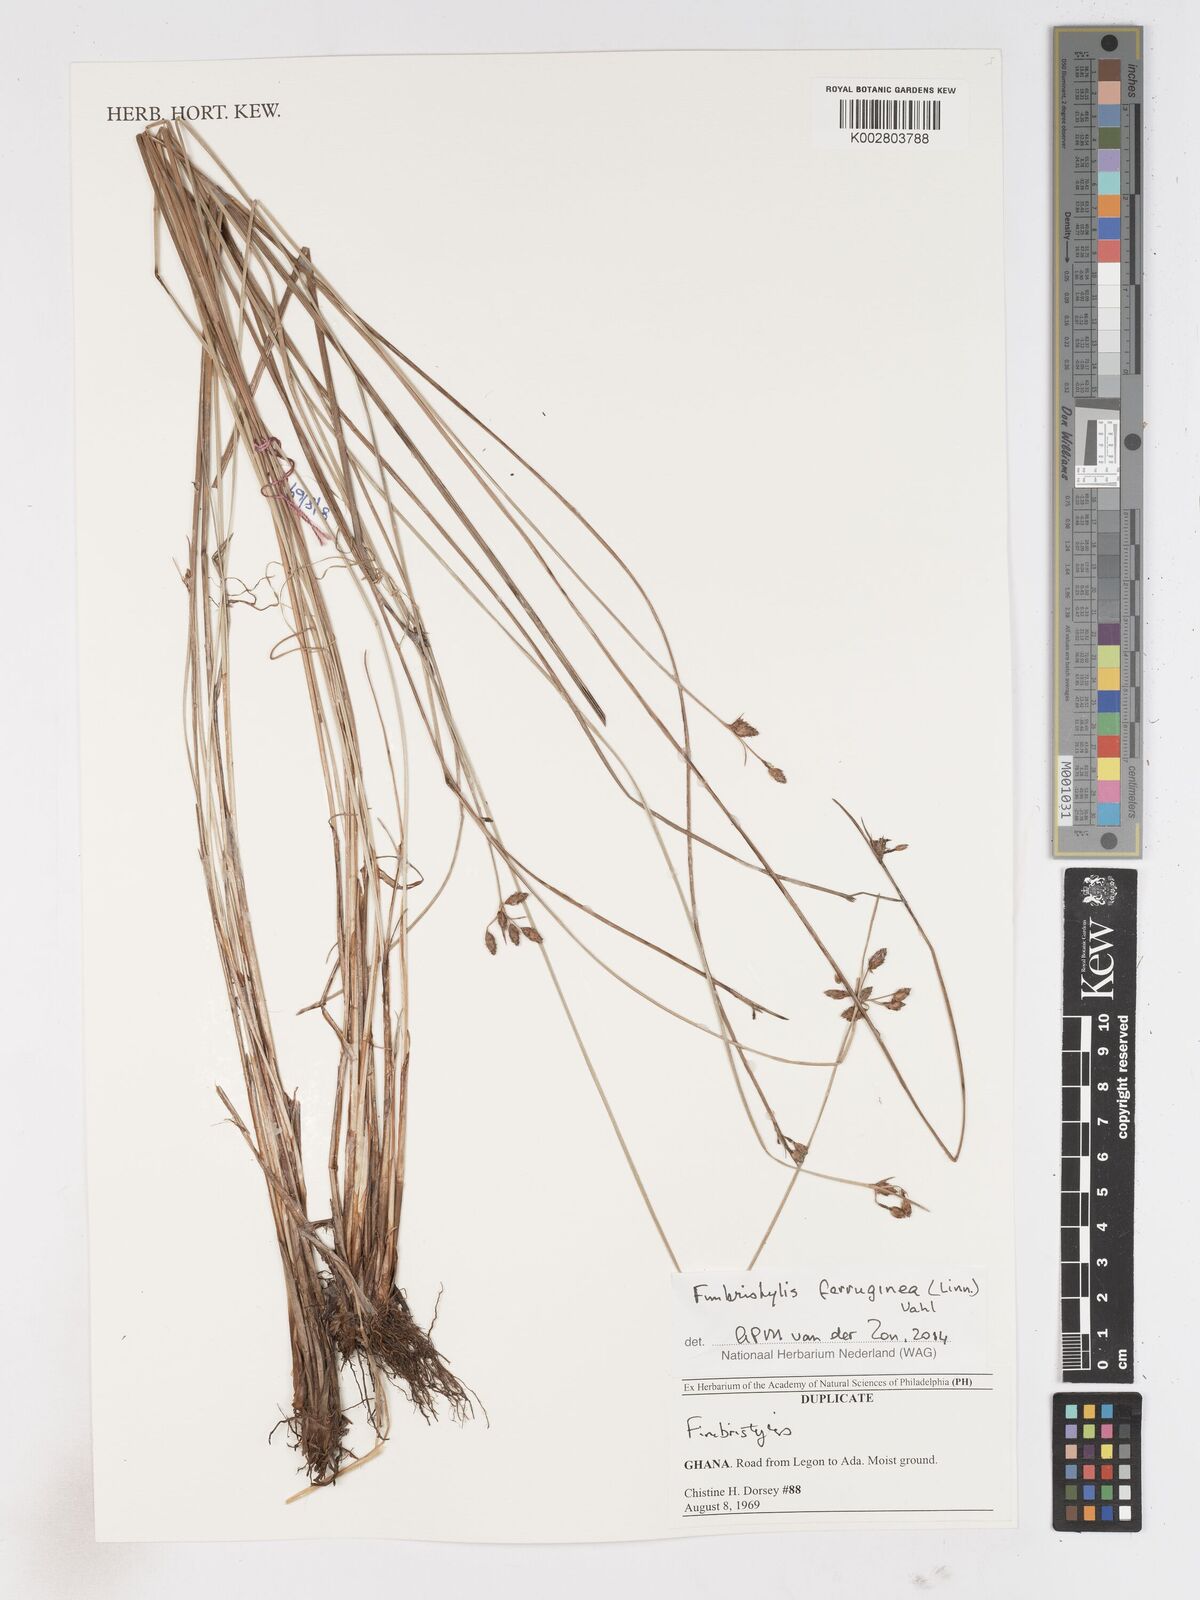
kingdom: Plantae
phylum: Tracheophyta
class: Liliopsida
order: Poales
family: Cyperaceae
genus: Fimbristylis
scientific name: Fimbristylis ferruginea
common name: West indian fimbry
